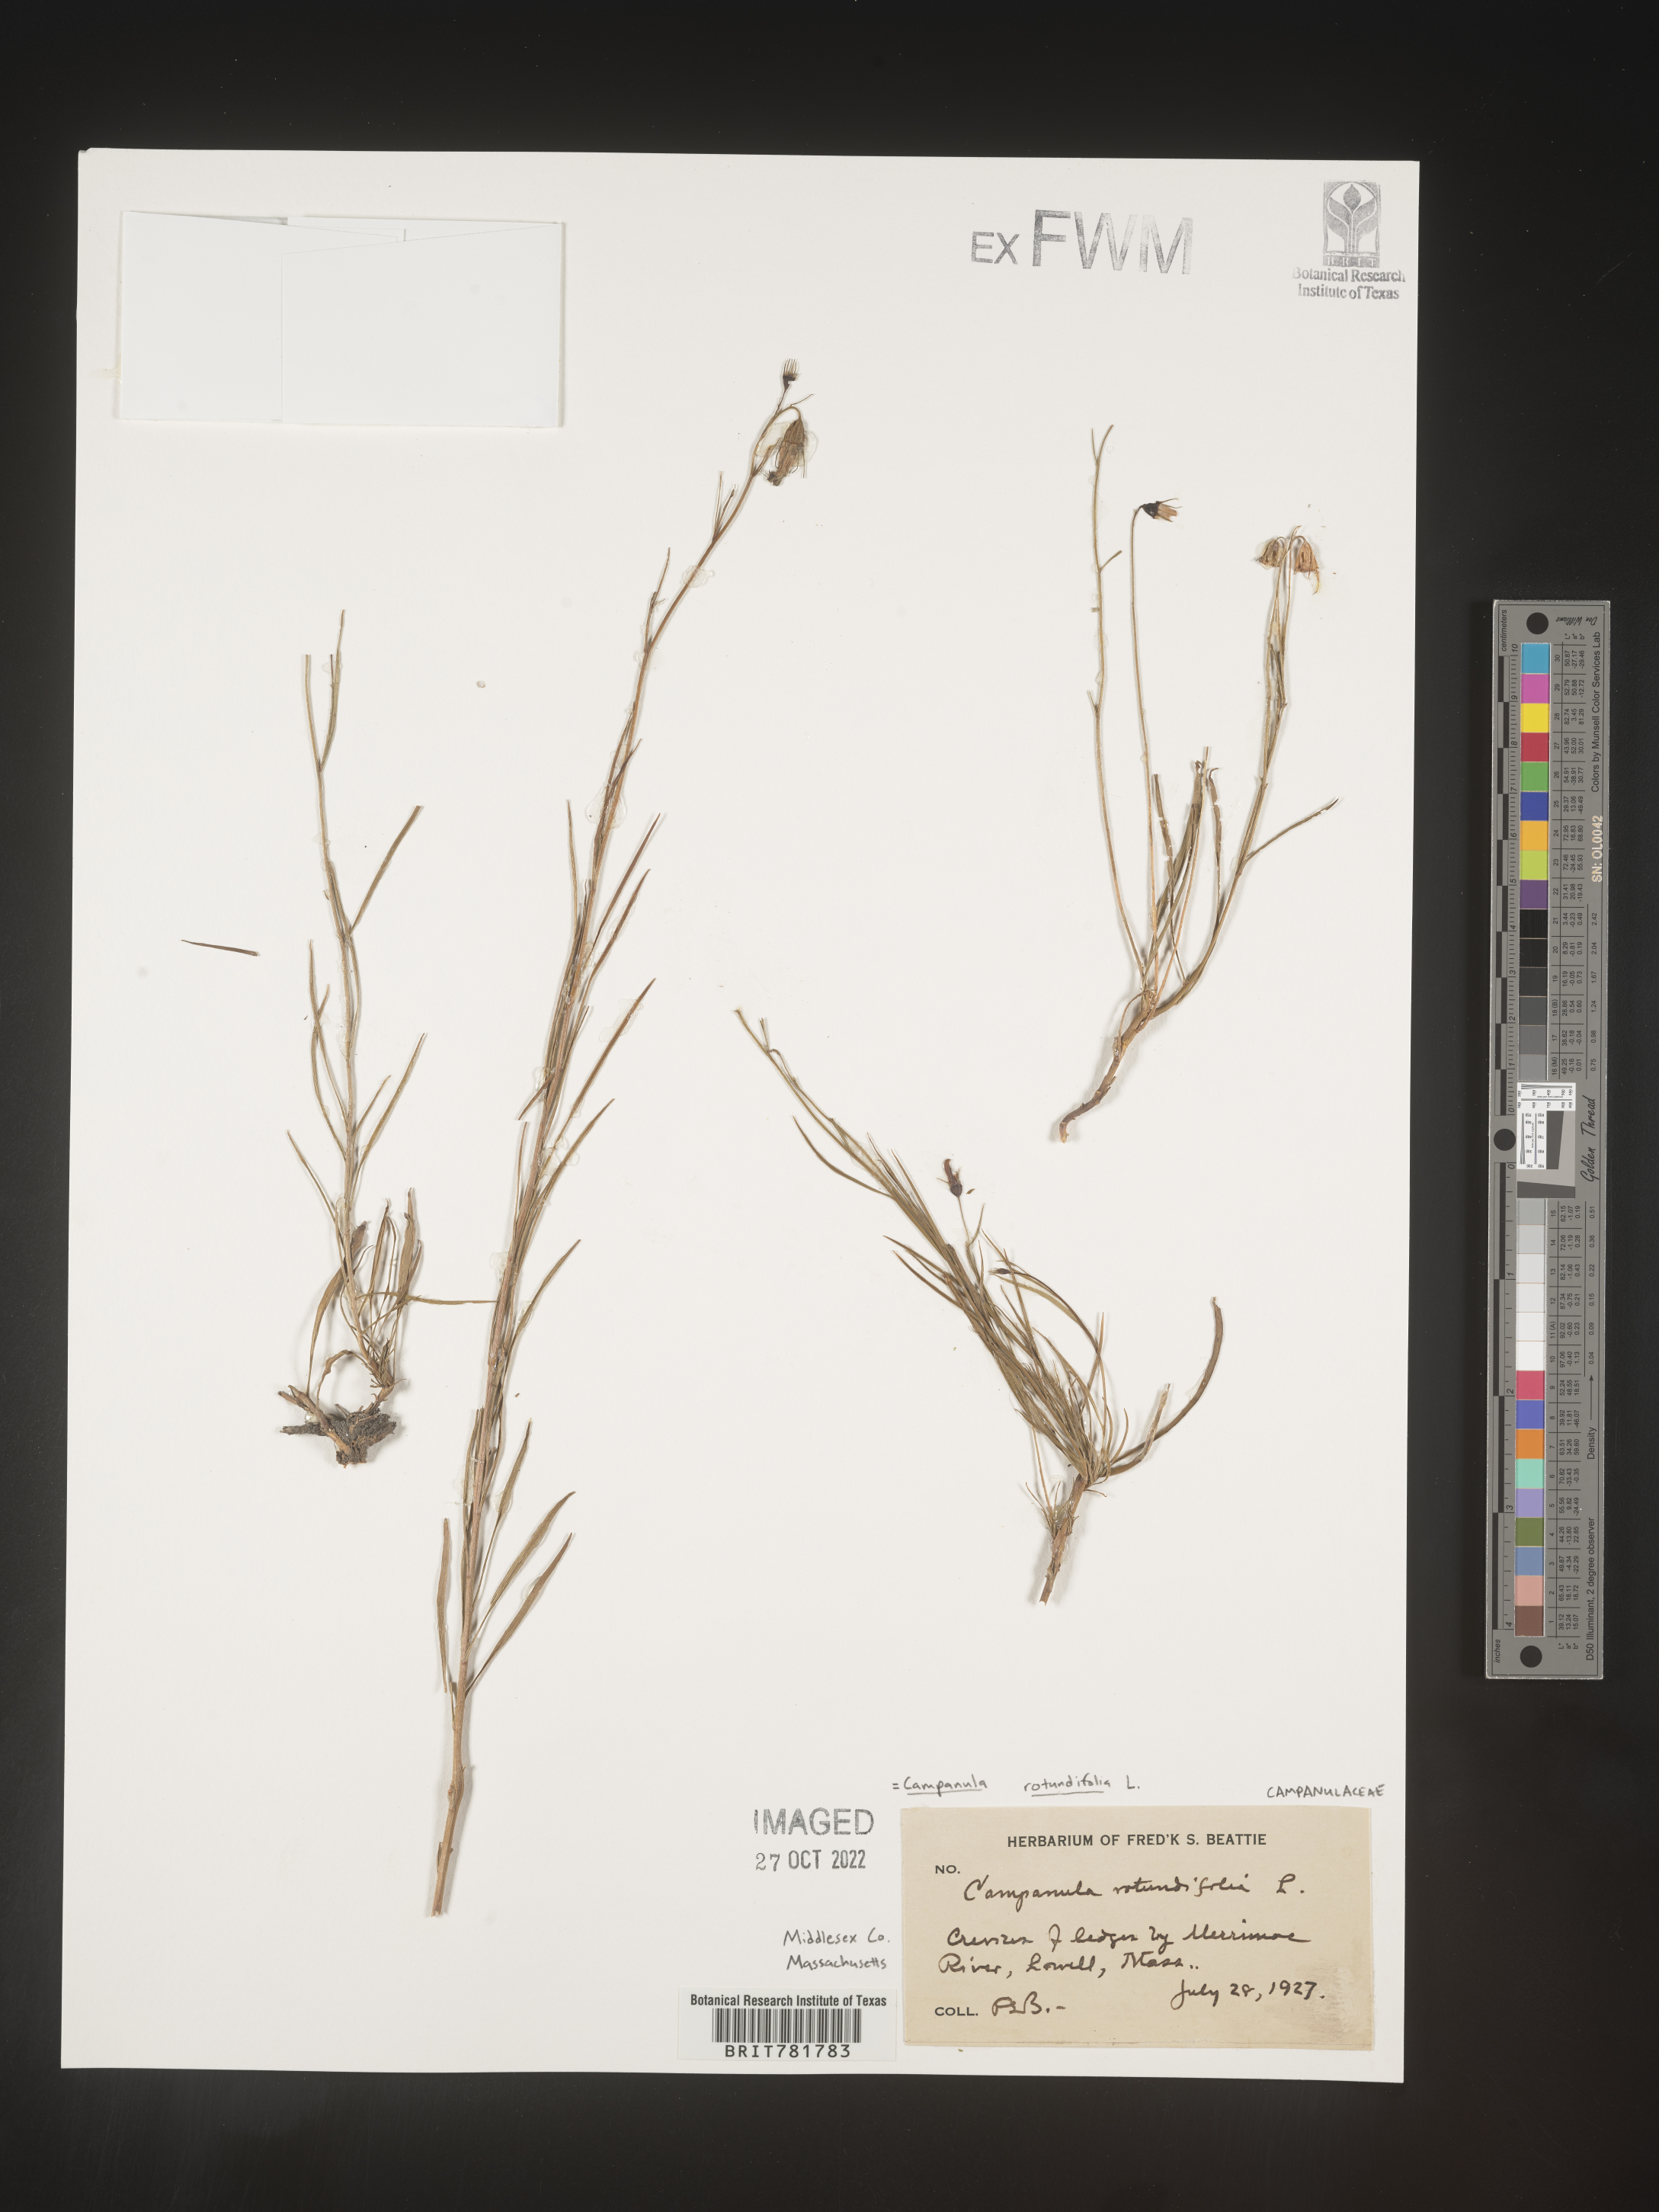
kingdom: Plantae
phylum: Tracheophyta
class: Magnoliopsida
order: Asterales
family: Campanulaceae
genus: Campanula
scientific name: Campanula rotundifolia
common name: Harebell
